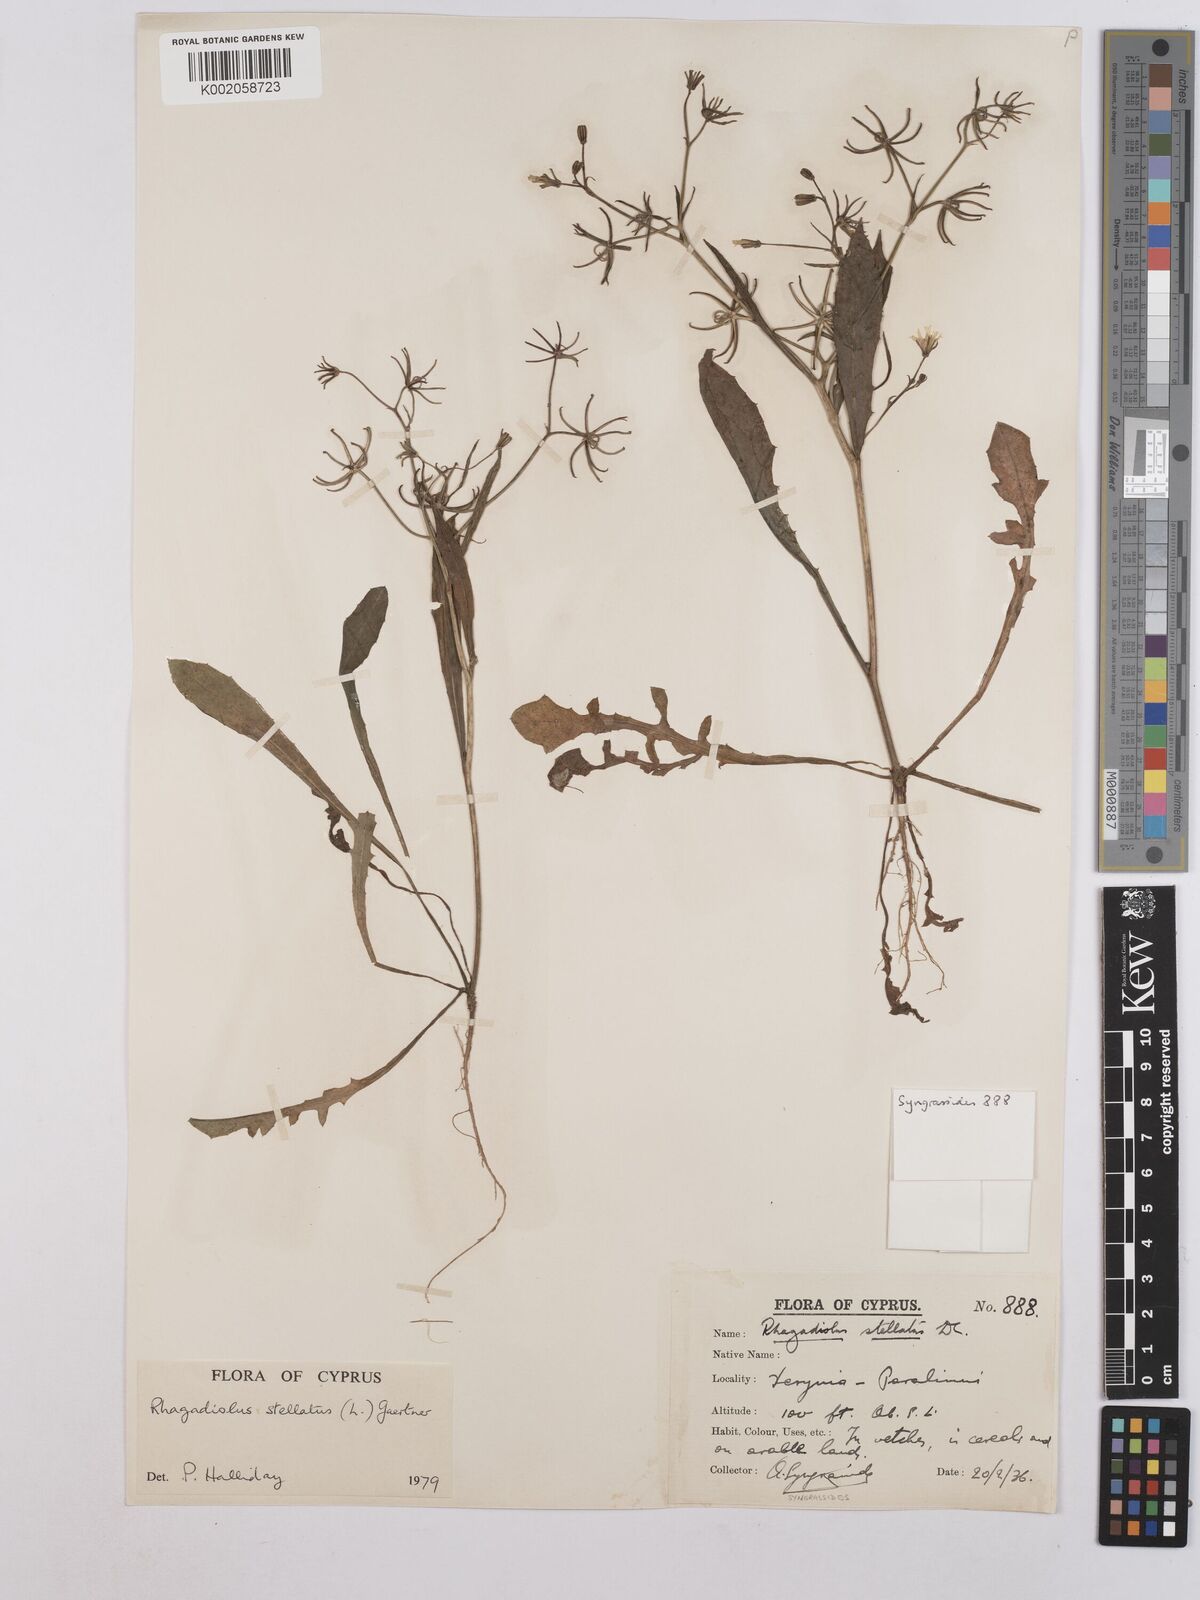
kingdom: Plantae
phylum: Tracheophyta
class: Magnoliopsida
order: Asterales
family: Asteraceae
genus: Rhagadiolus
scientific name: Rhagadiolus stellatus
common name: Star hawkbit
